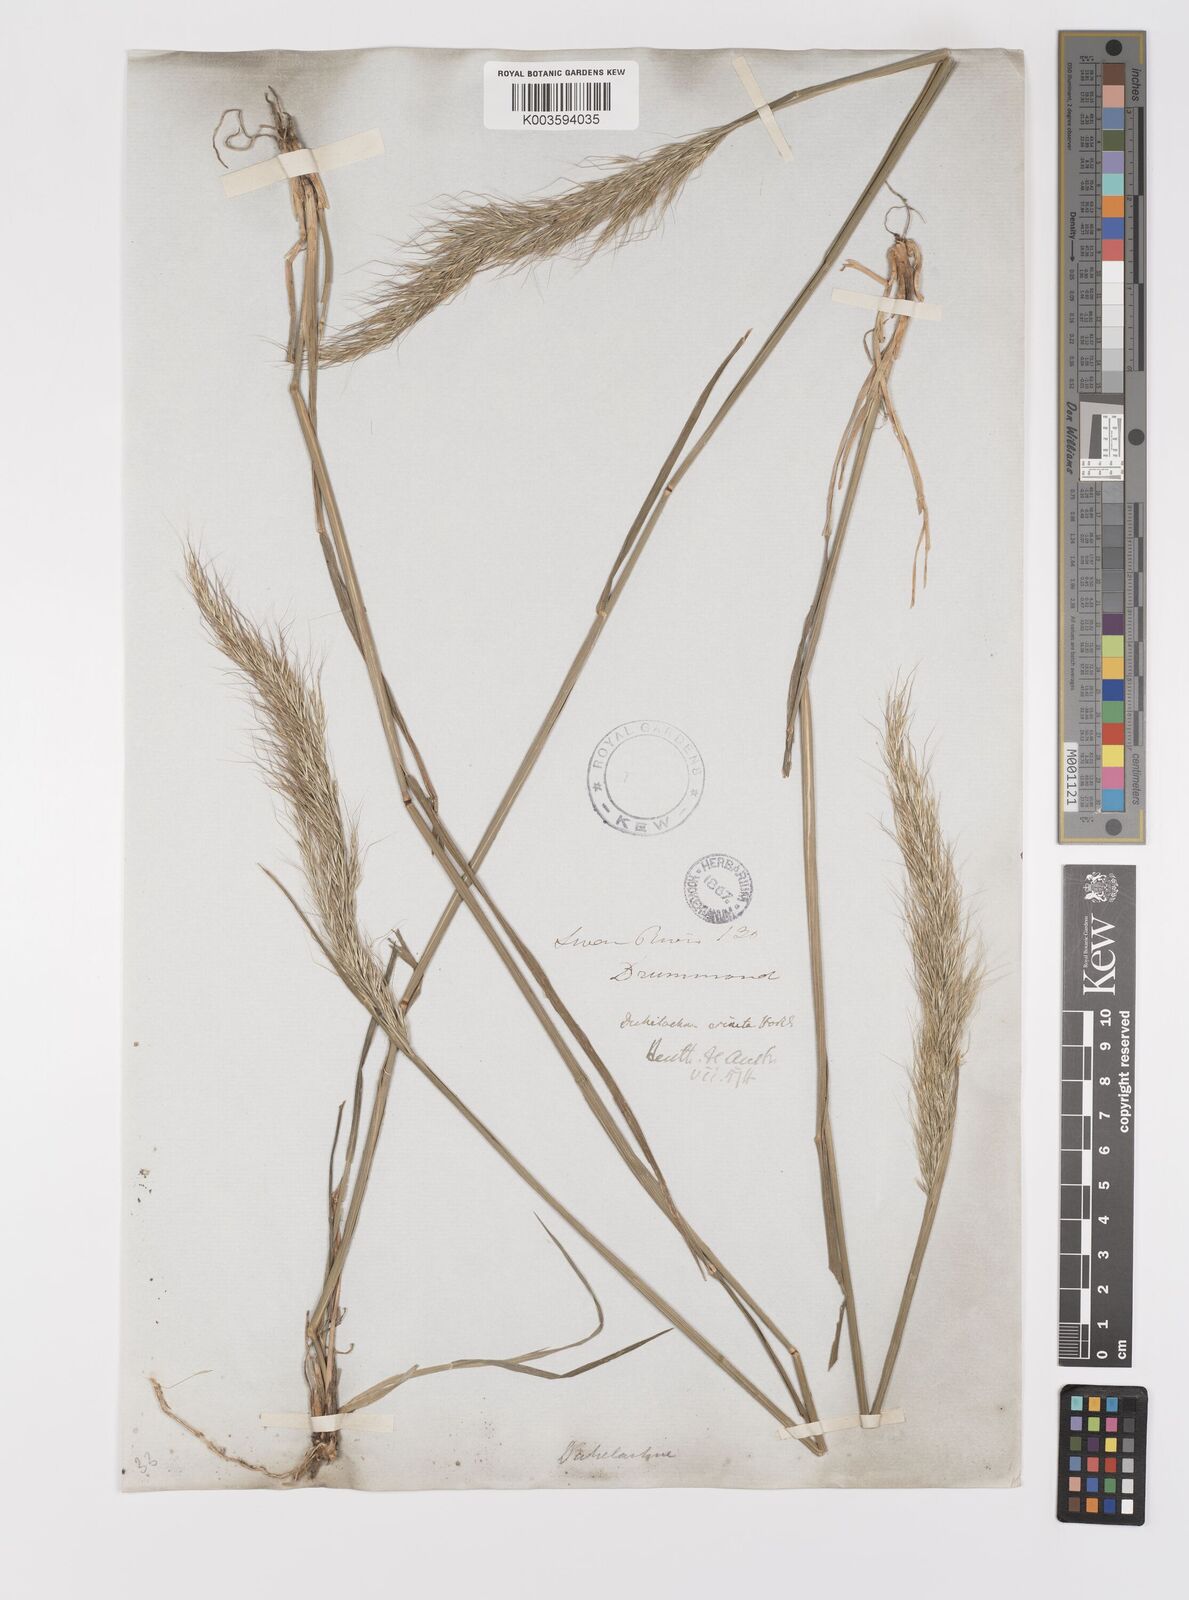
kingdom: Plantae
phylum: Tracheophyta
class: Liliopsida
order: Poales
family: Poaceae
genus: Dichelachne
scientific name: Dichelachne rara
